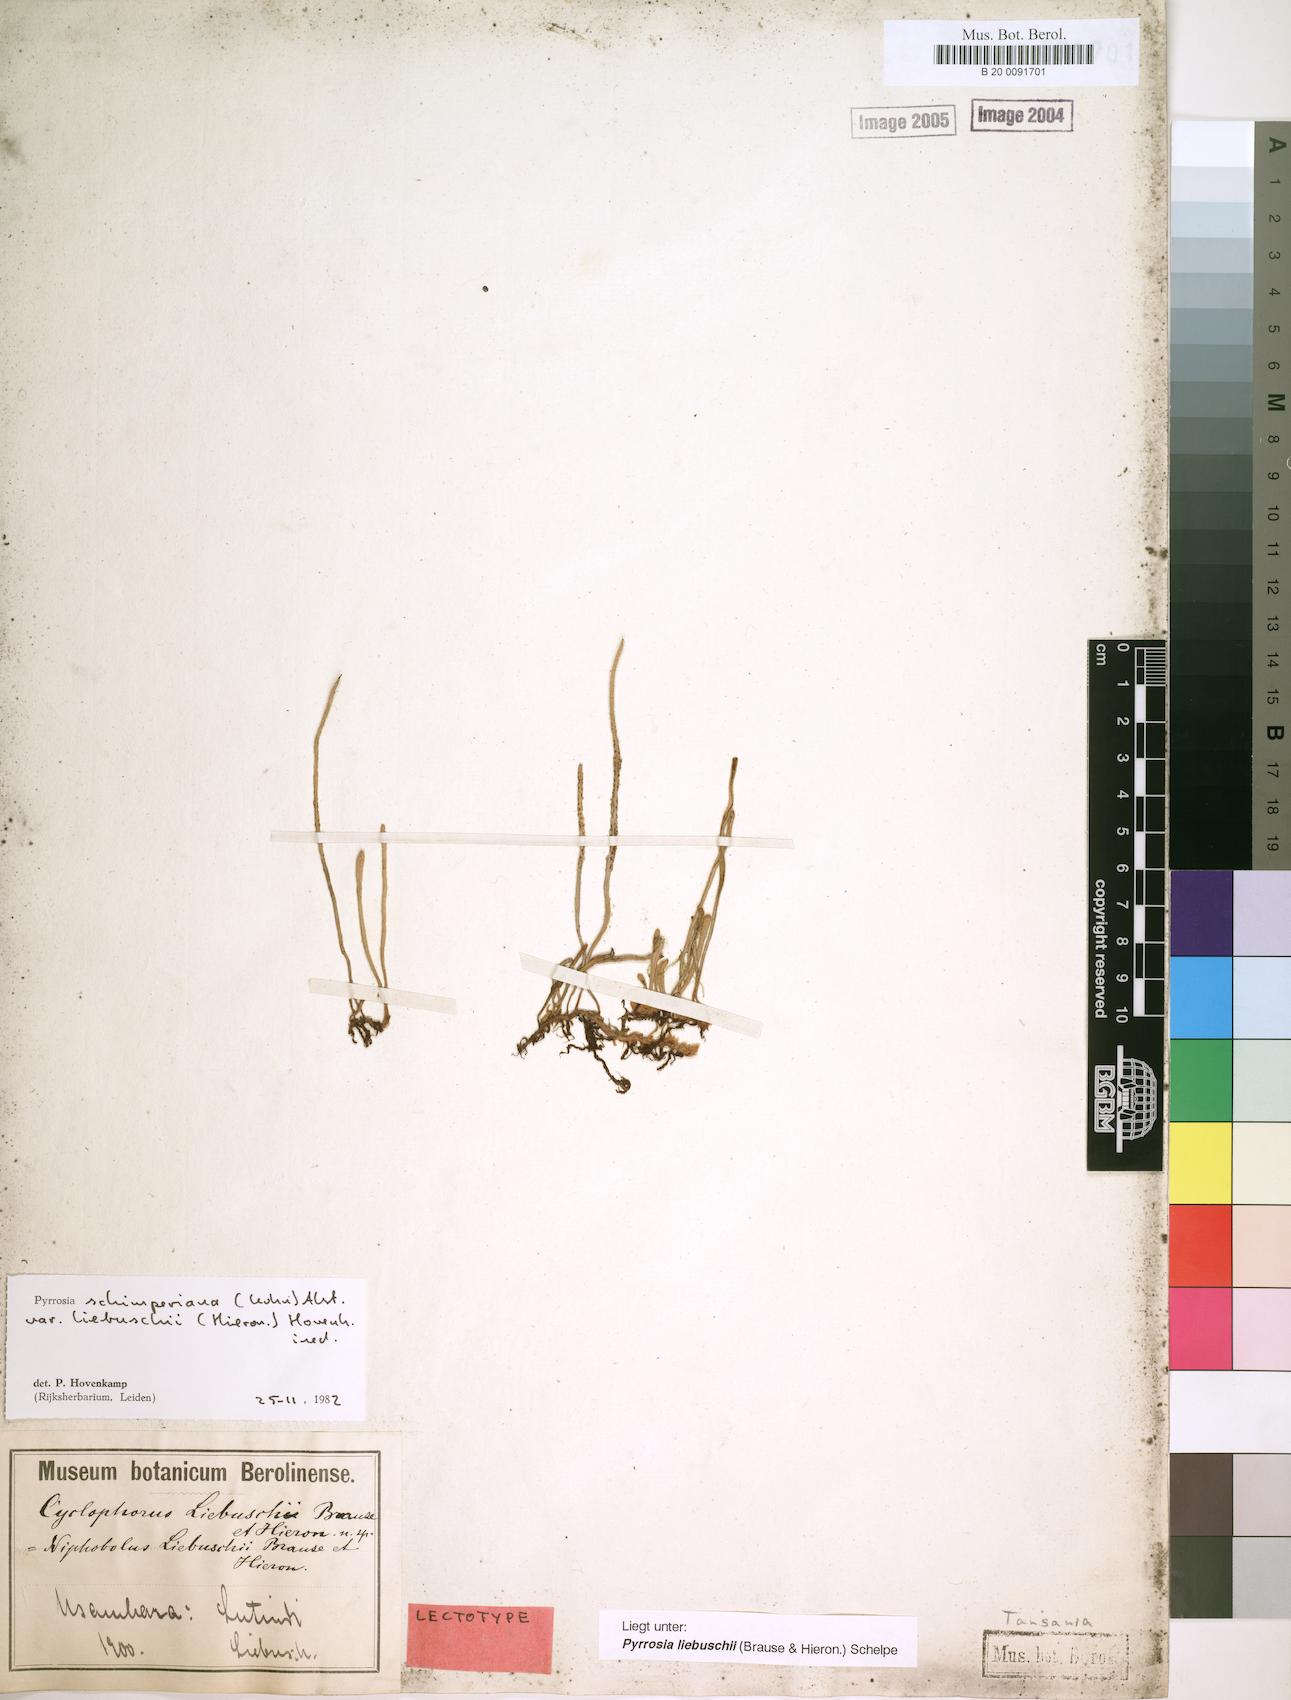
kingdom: Plantae
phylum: Tracheophyta
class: Polypodiopsida
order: Polypodiales
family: Polypodiaceae
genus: Hovenkampia
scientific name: Hovenkampia liebuschii
